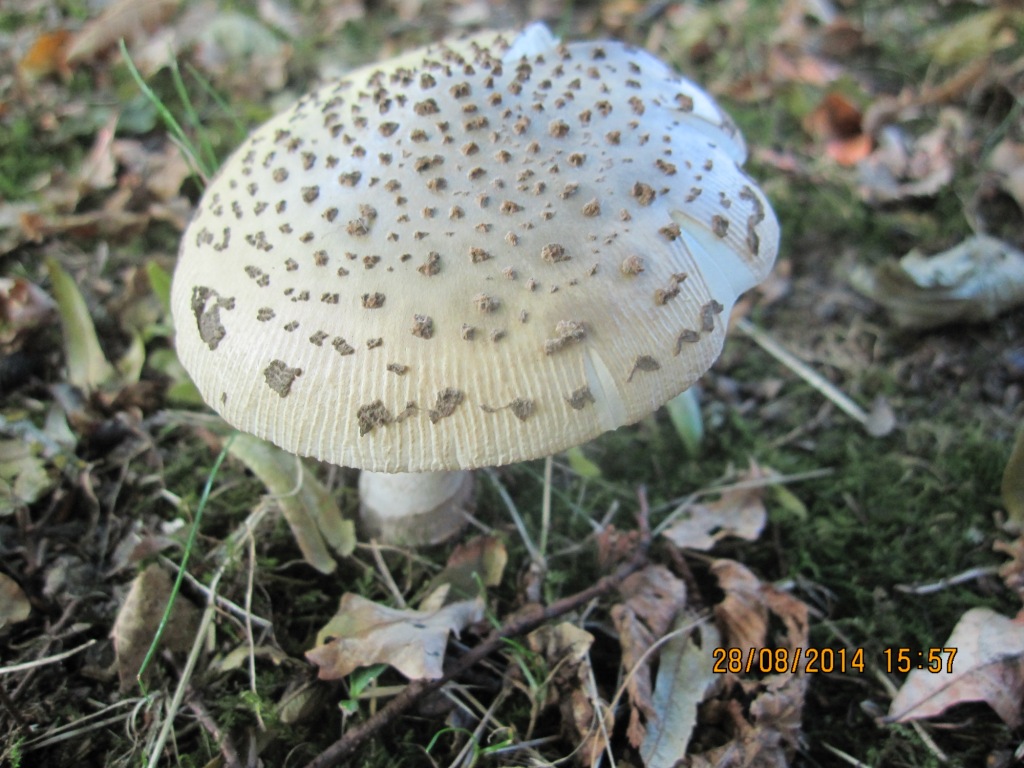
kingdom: Fungi
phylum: Basidiomycota
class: Agaricomycetes
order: Agaricales
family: Amanitaceae
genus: Amanita
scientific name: Amanita ceciliae
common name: stor kam-fluesvamp
